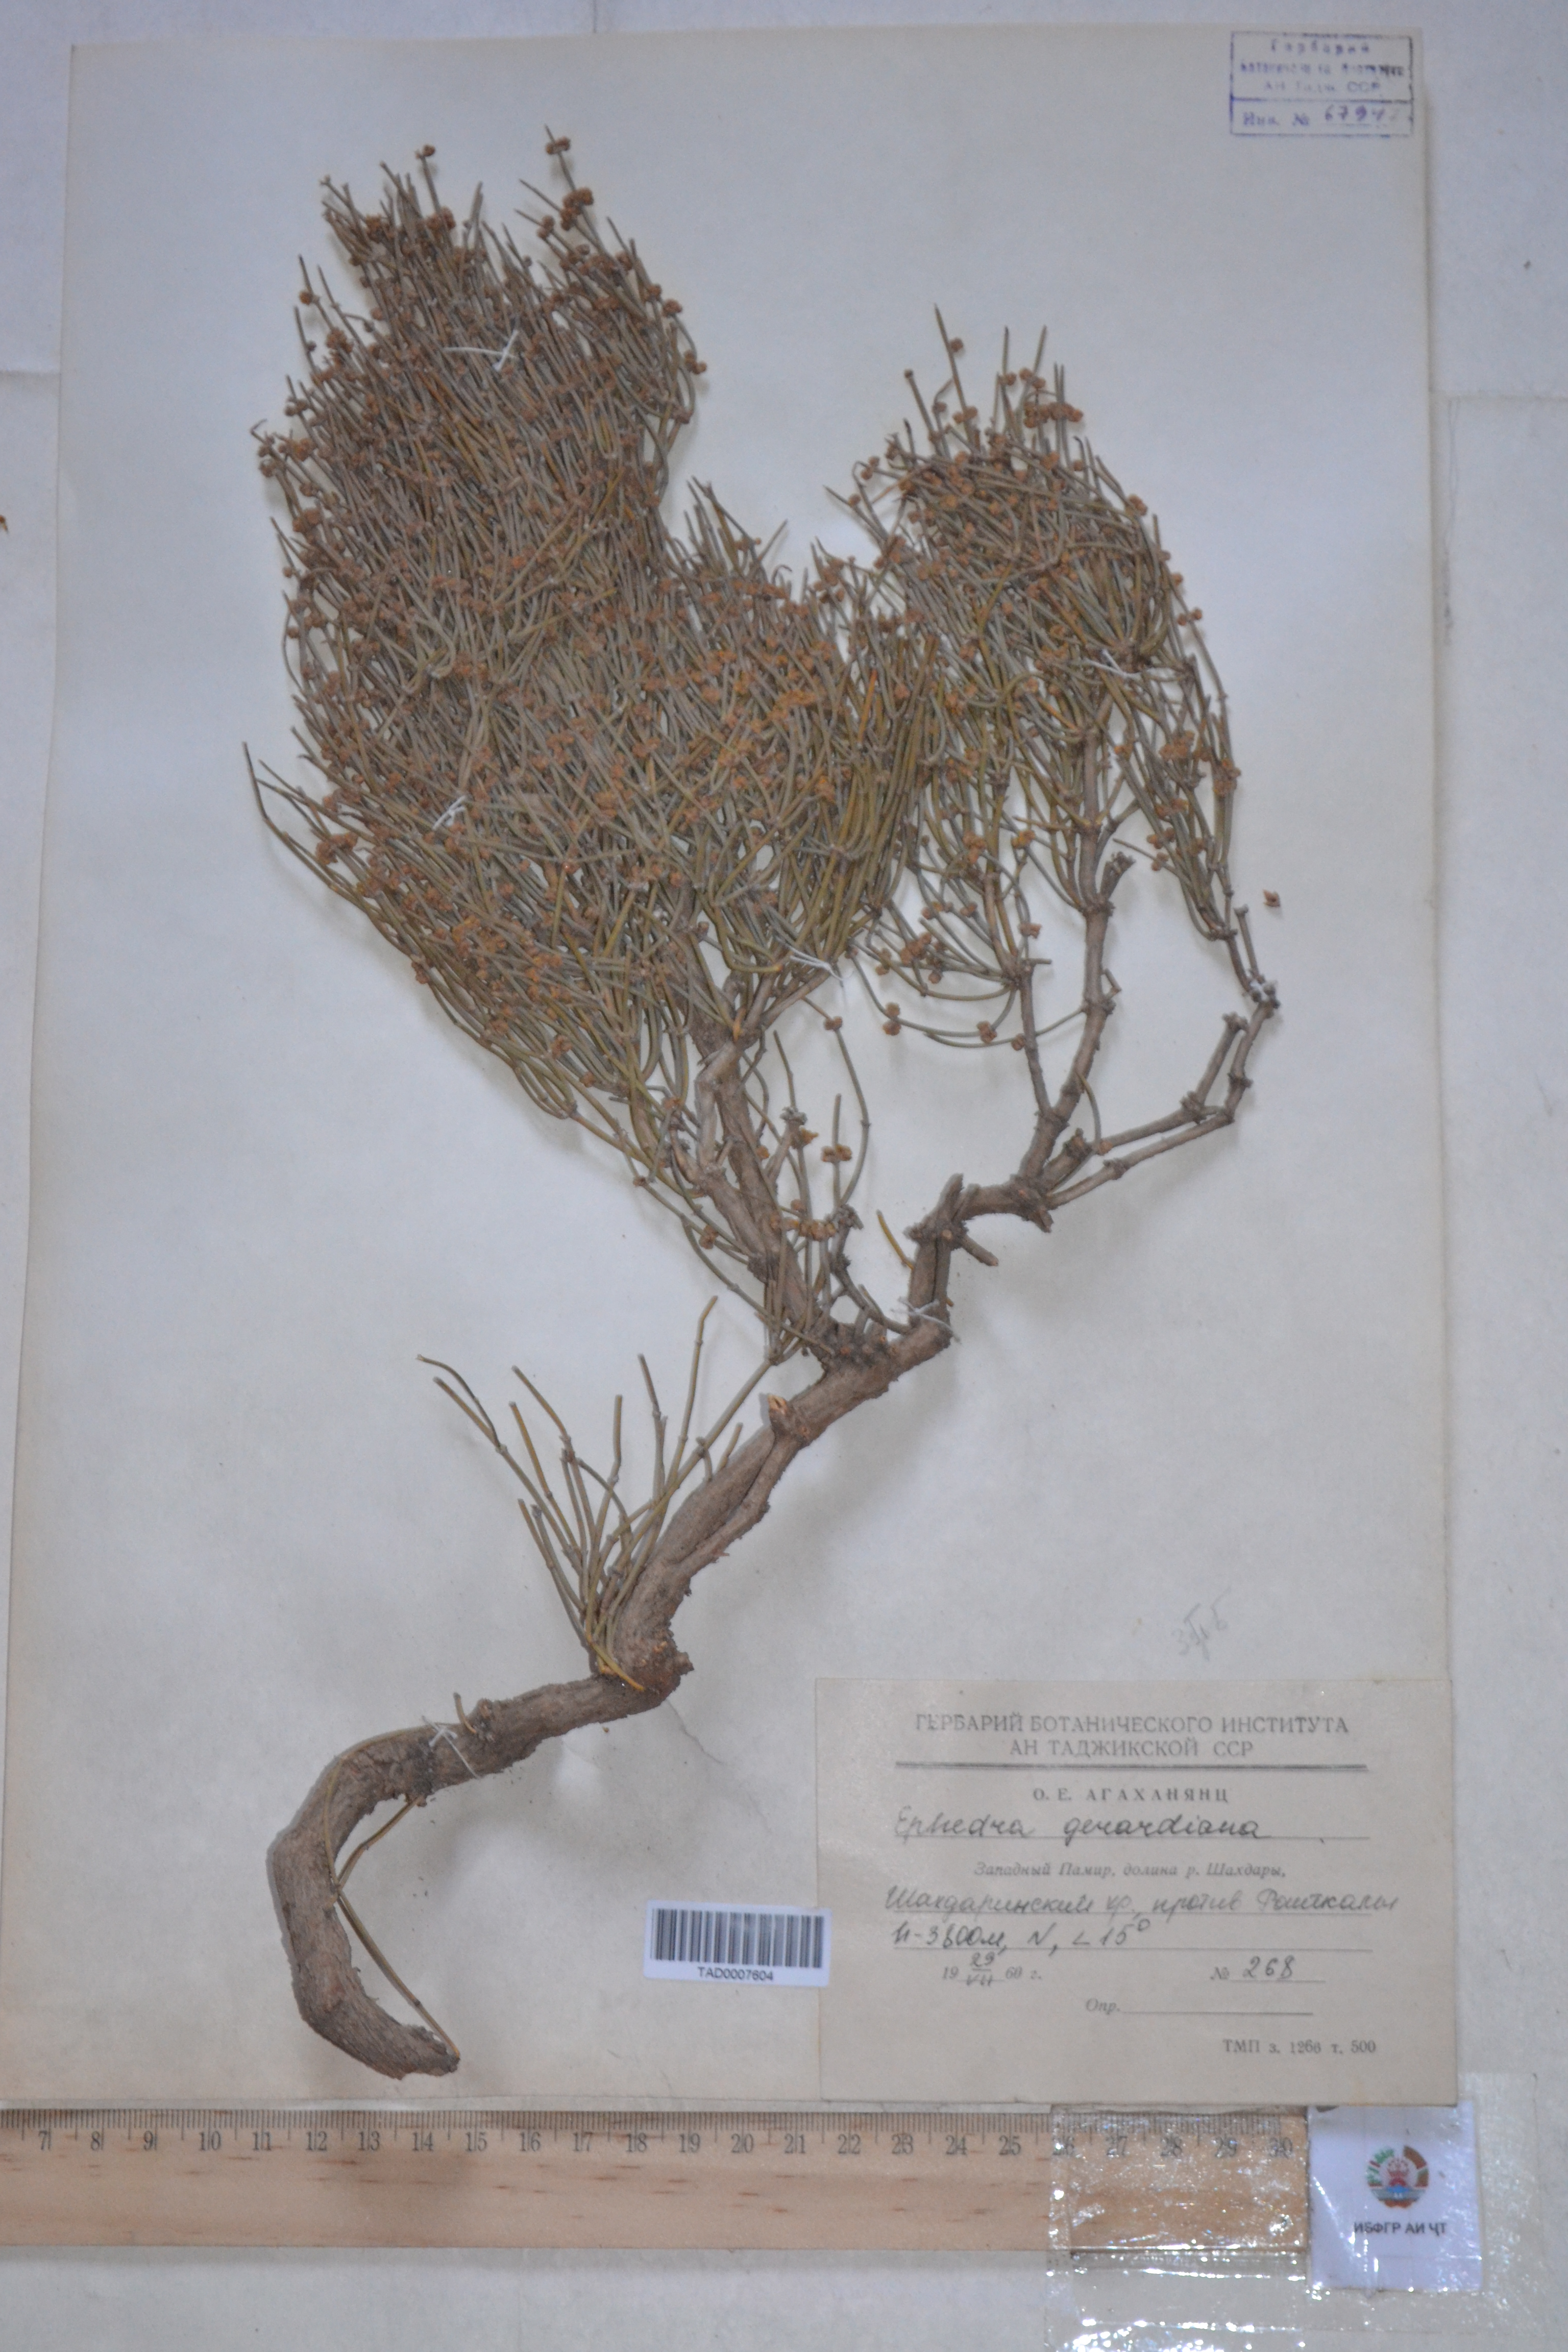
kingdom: Plantae
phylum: Tracheophyta
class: Gnetopsida
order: Ephedrales
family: Ephedraceae
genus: Ephedra
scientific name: Ephedra gerardiana
